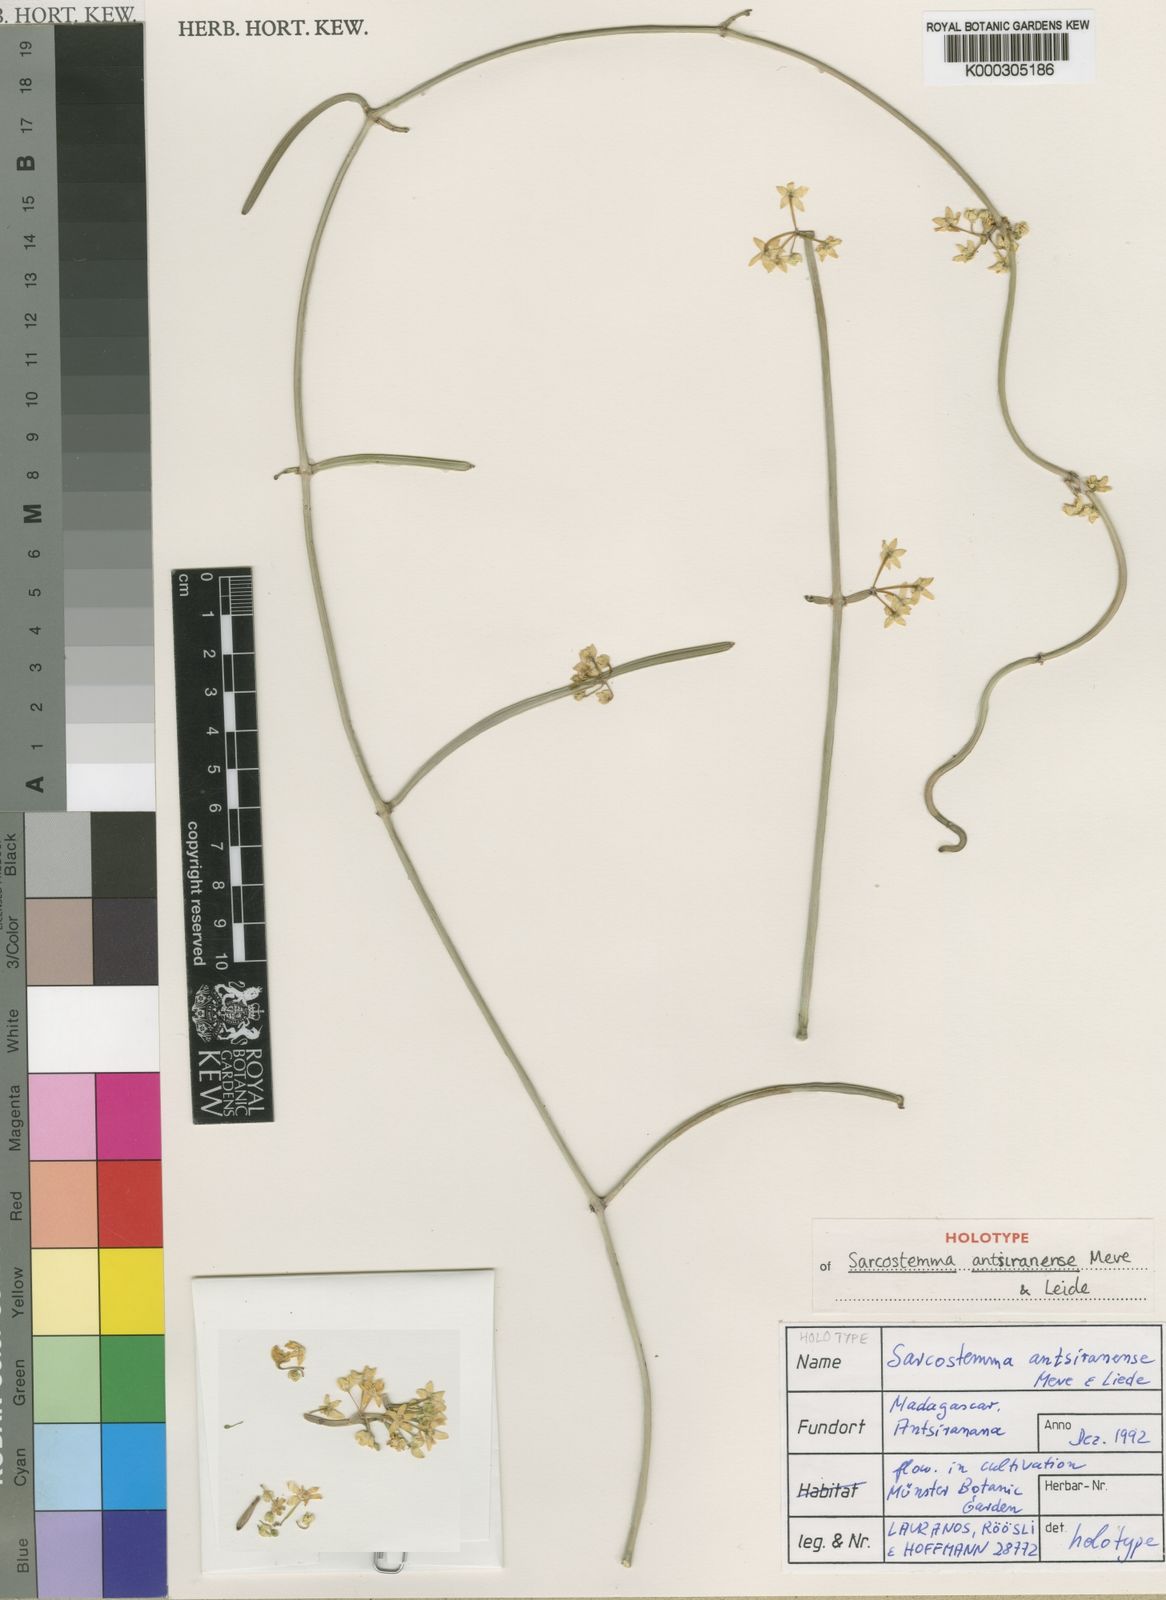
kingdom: Plantae
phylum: Tracheophyta
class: Magnoliopsida
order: Gentianales
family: Apocynaceae
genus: Cynanchum
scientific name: Cynanchum antsiranense
